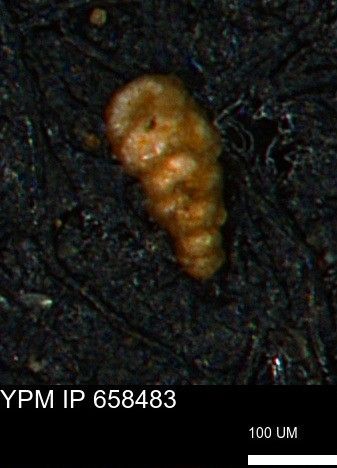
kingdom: Chromista
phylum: Foraminifera
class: Globothalamea
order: Lituolida
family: Verneuilinidae
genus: Verneuilinoides
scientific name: Verneuilinoides kansasensis
